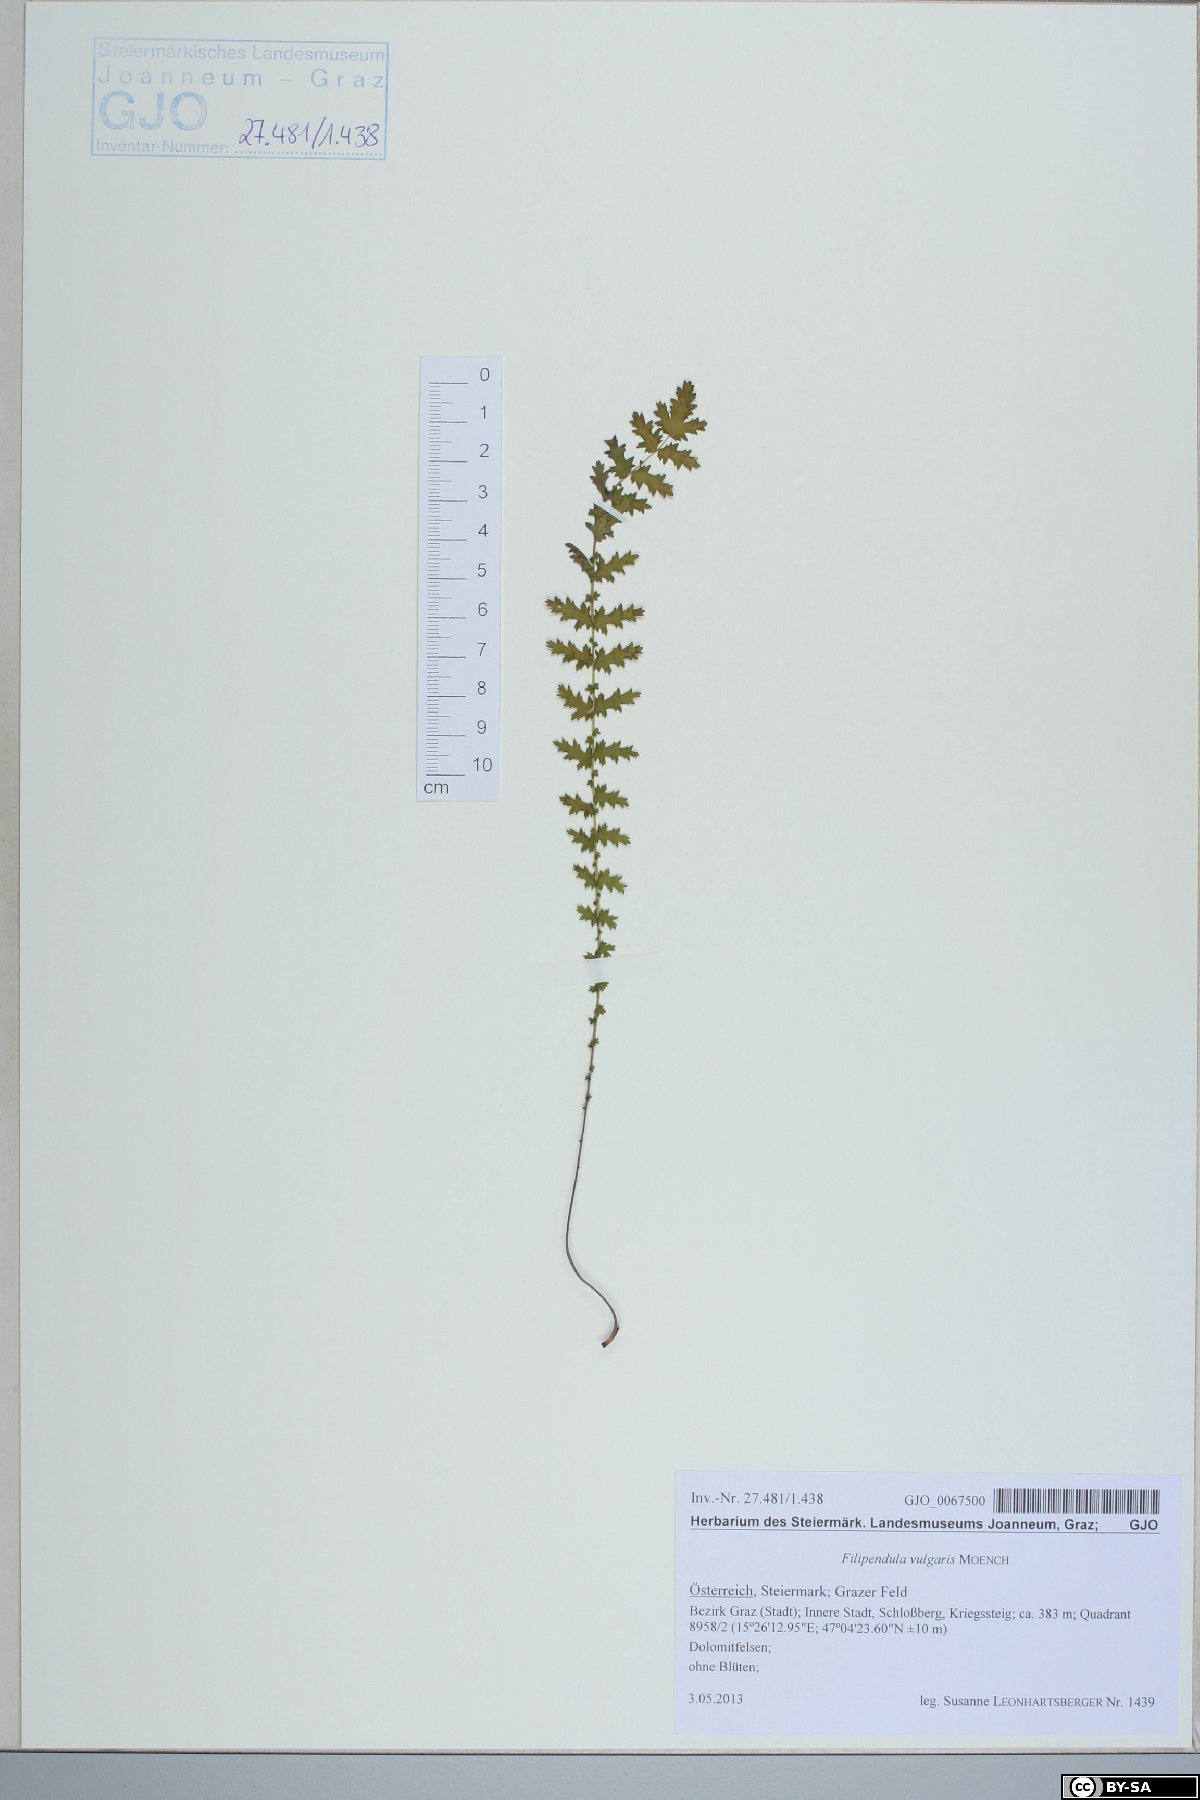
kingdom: Plantae
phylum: Tracheophyta
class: Magnoliopsida
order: Rosales
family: Rosaceae
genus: Filipendula
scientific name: Filipendula vulgaris
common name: Dropwort
